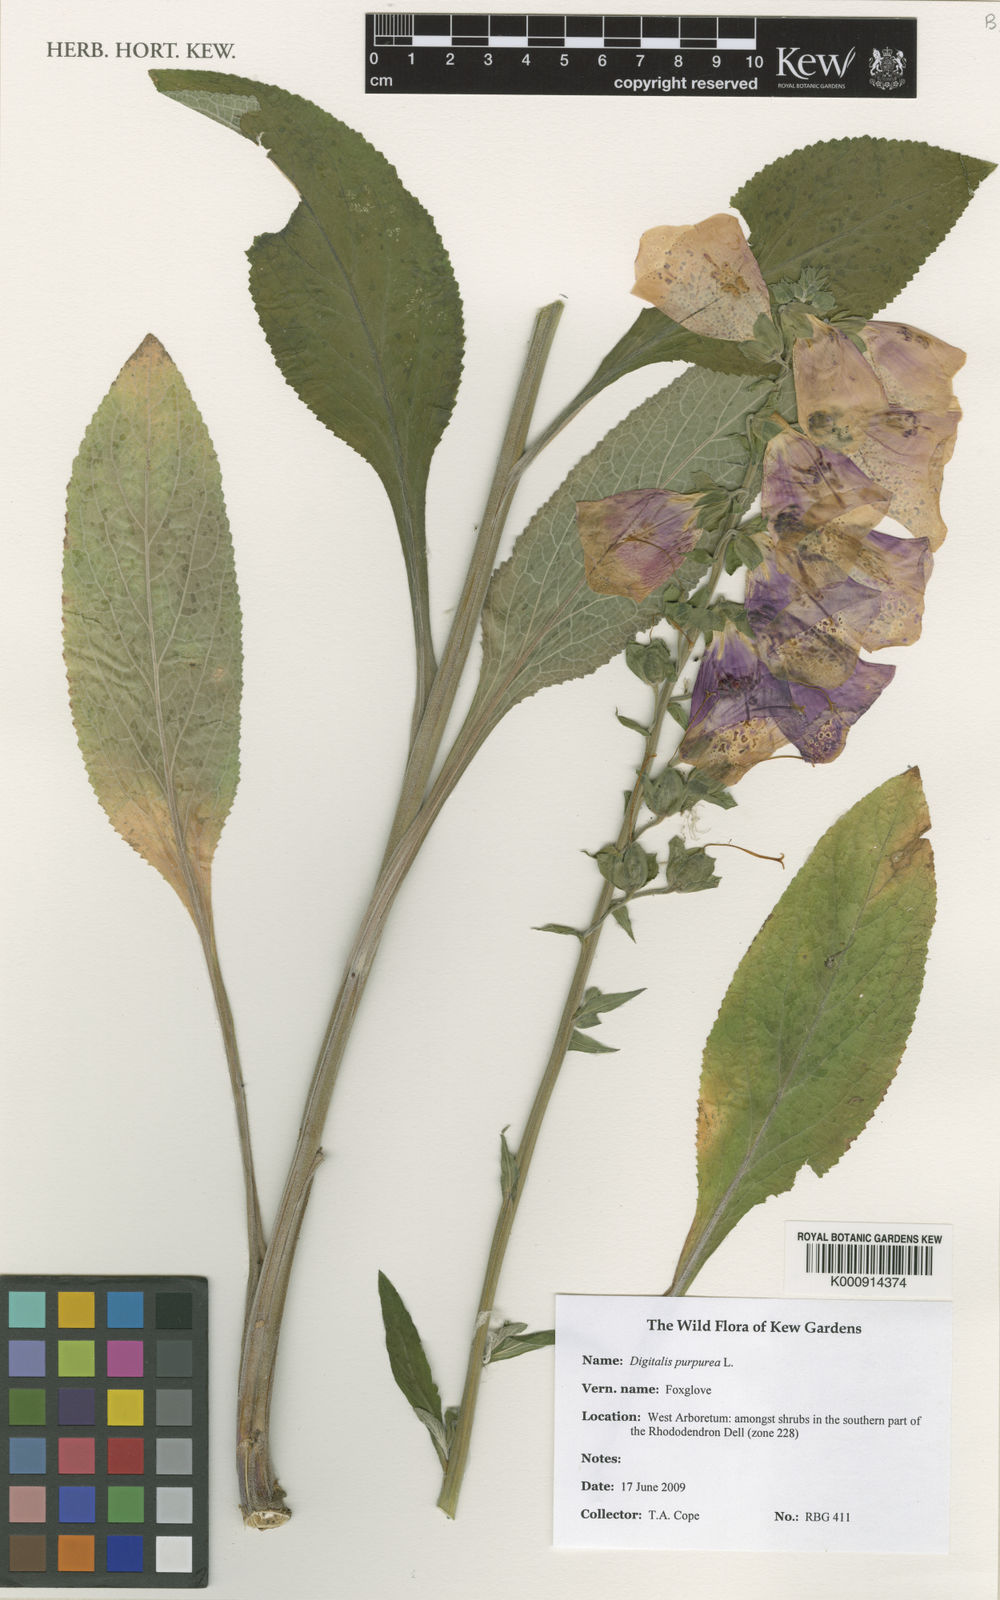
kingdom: Plantae
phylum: Tracheophyta
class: Magnoliopsida
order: Lamiales
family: Plantaginaceae
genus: Digitalis
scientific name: Digitalis purpurea
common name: Foxglove
